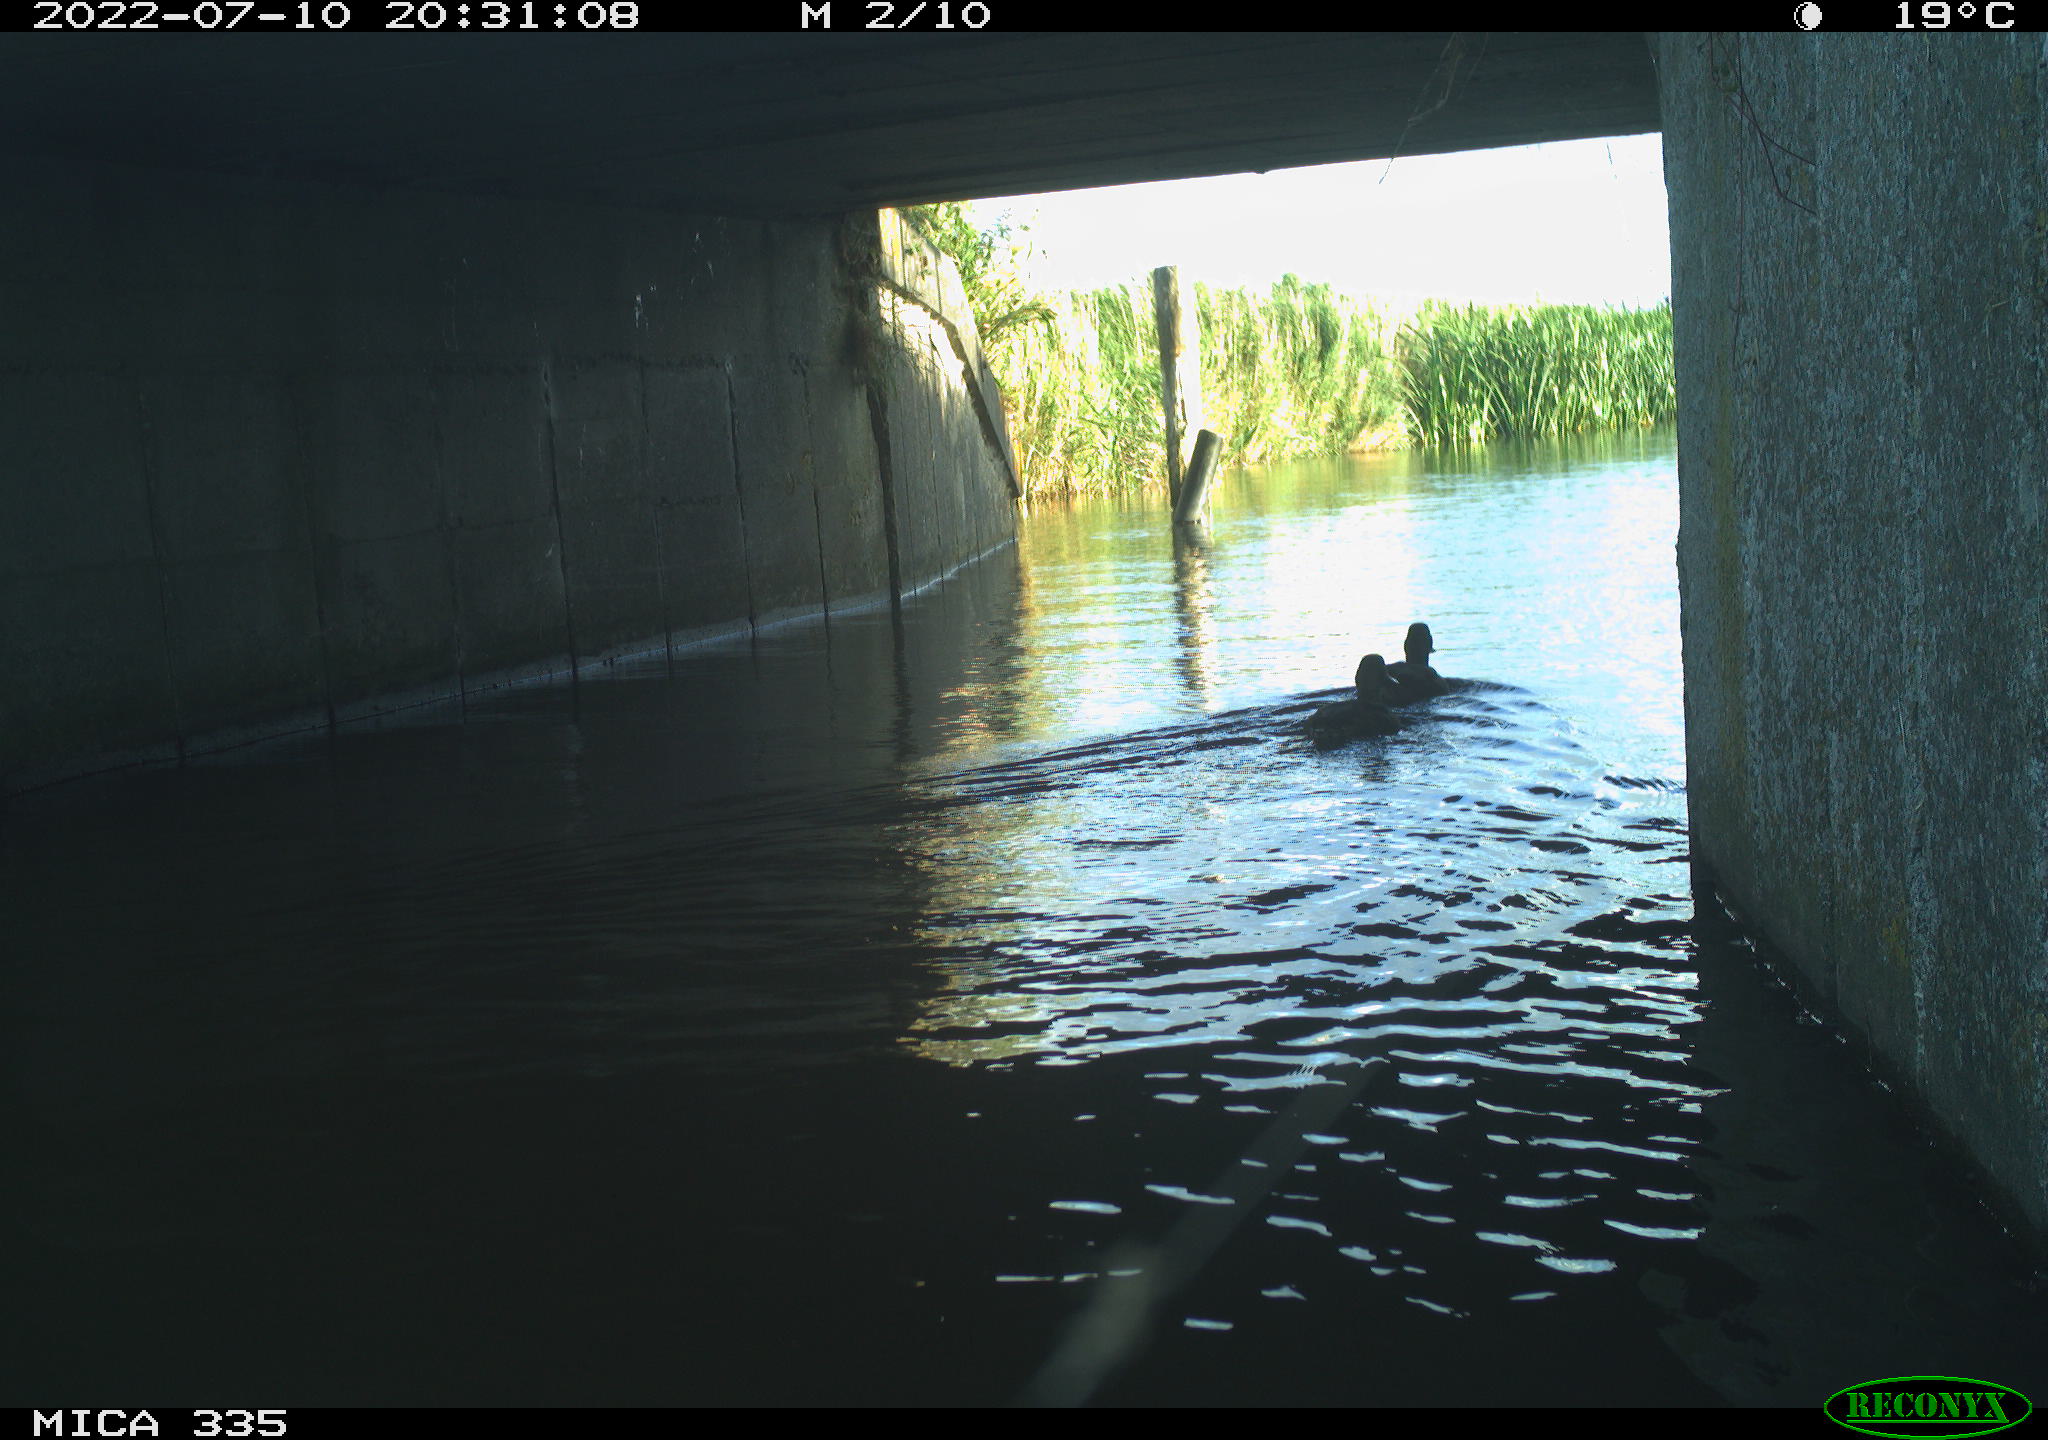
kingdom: Animalia
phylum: Chordata
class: Aves
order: Anseriformes
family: Anatidae
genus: Anas
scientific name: Anas platyrhynchos
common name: Mallard
